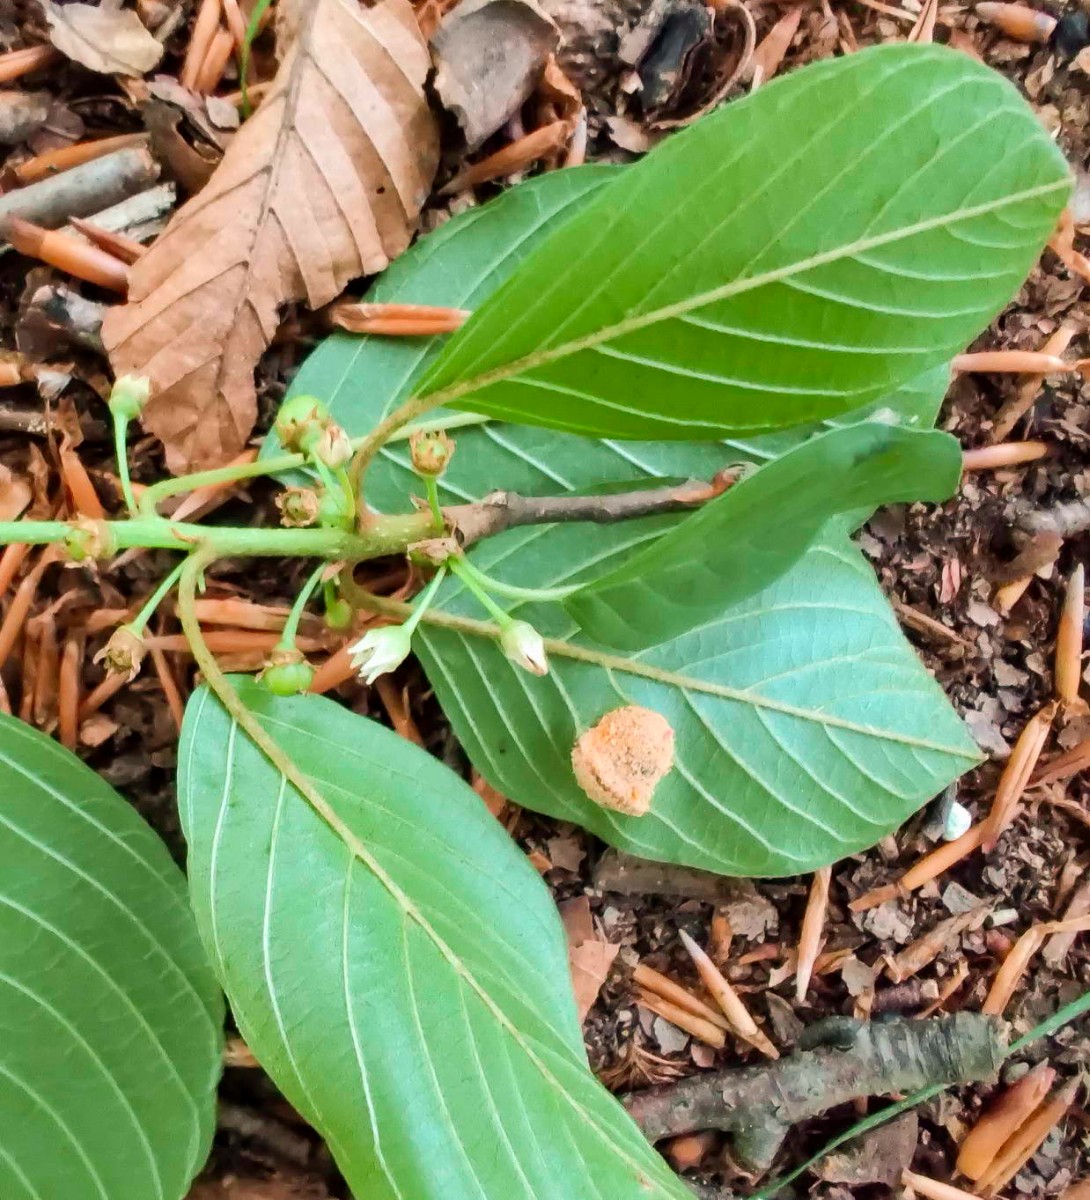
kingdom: Fungi
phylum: Basidiomycota
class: Pucciniomycetes
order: Pucciniales
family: Pucciniaceae
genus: Puccinia
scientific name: Puccinia coronata
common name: Crown rust
